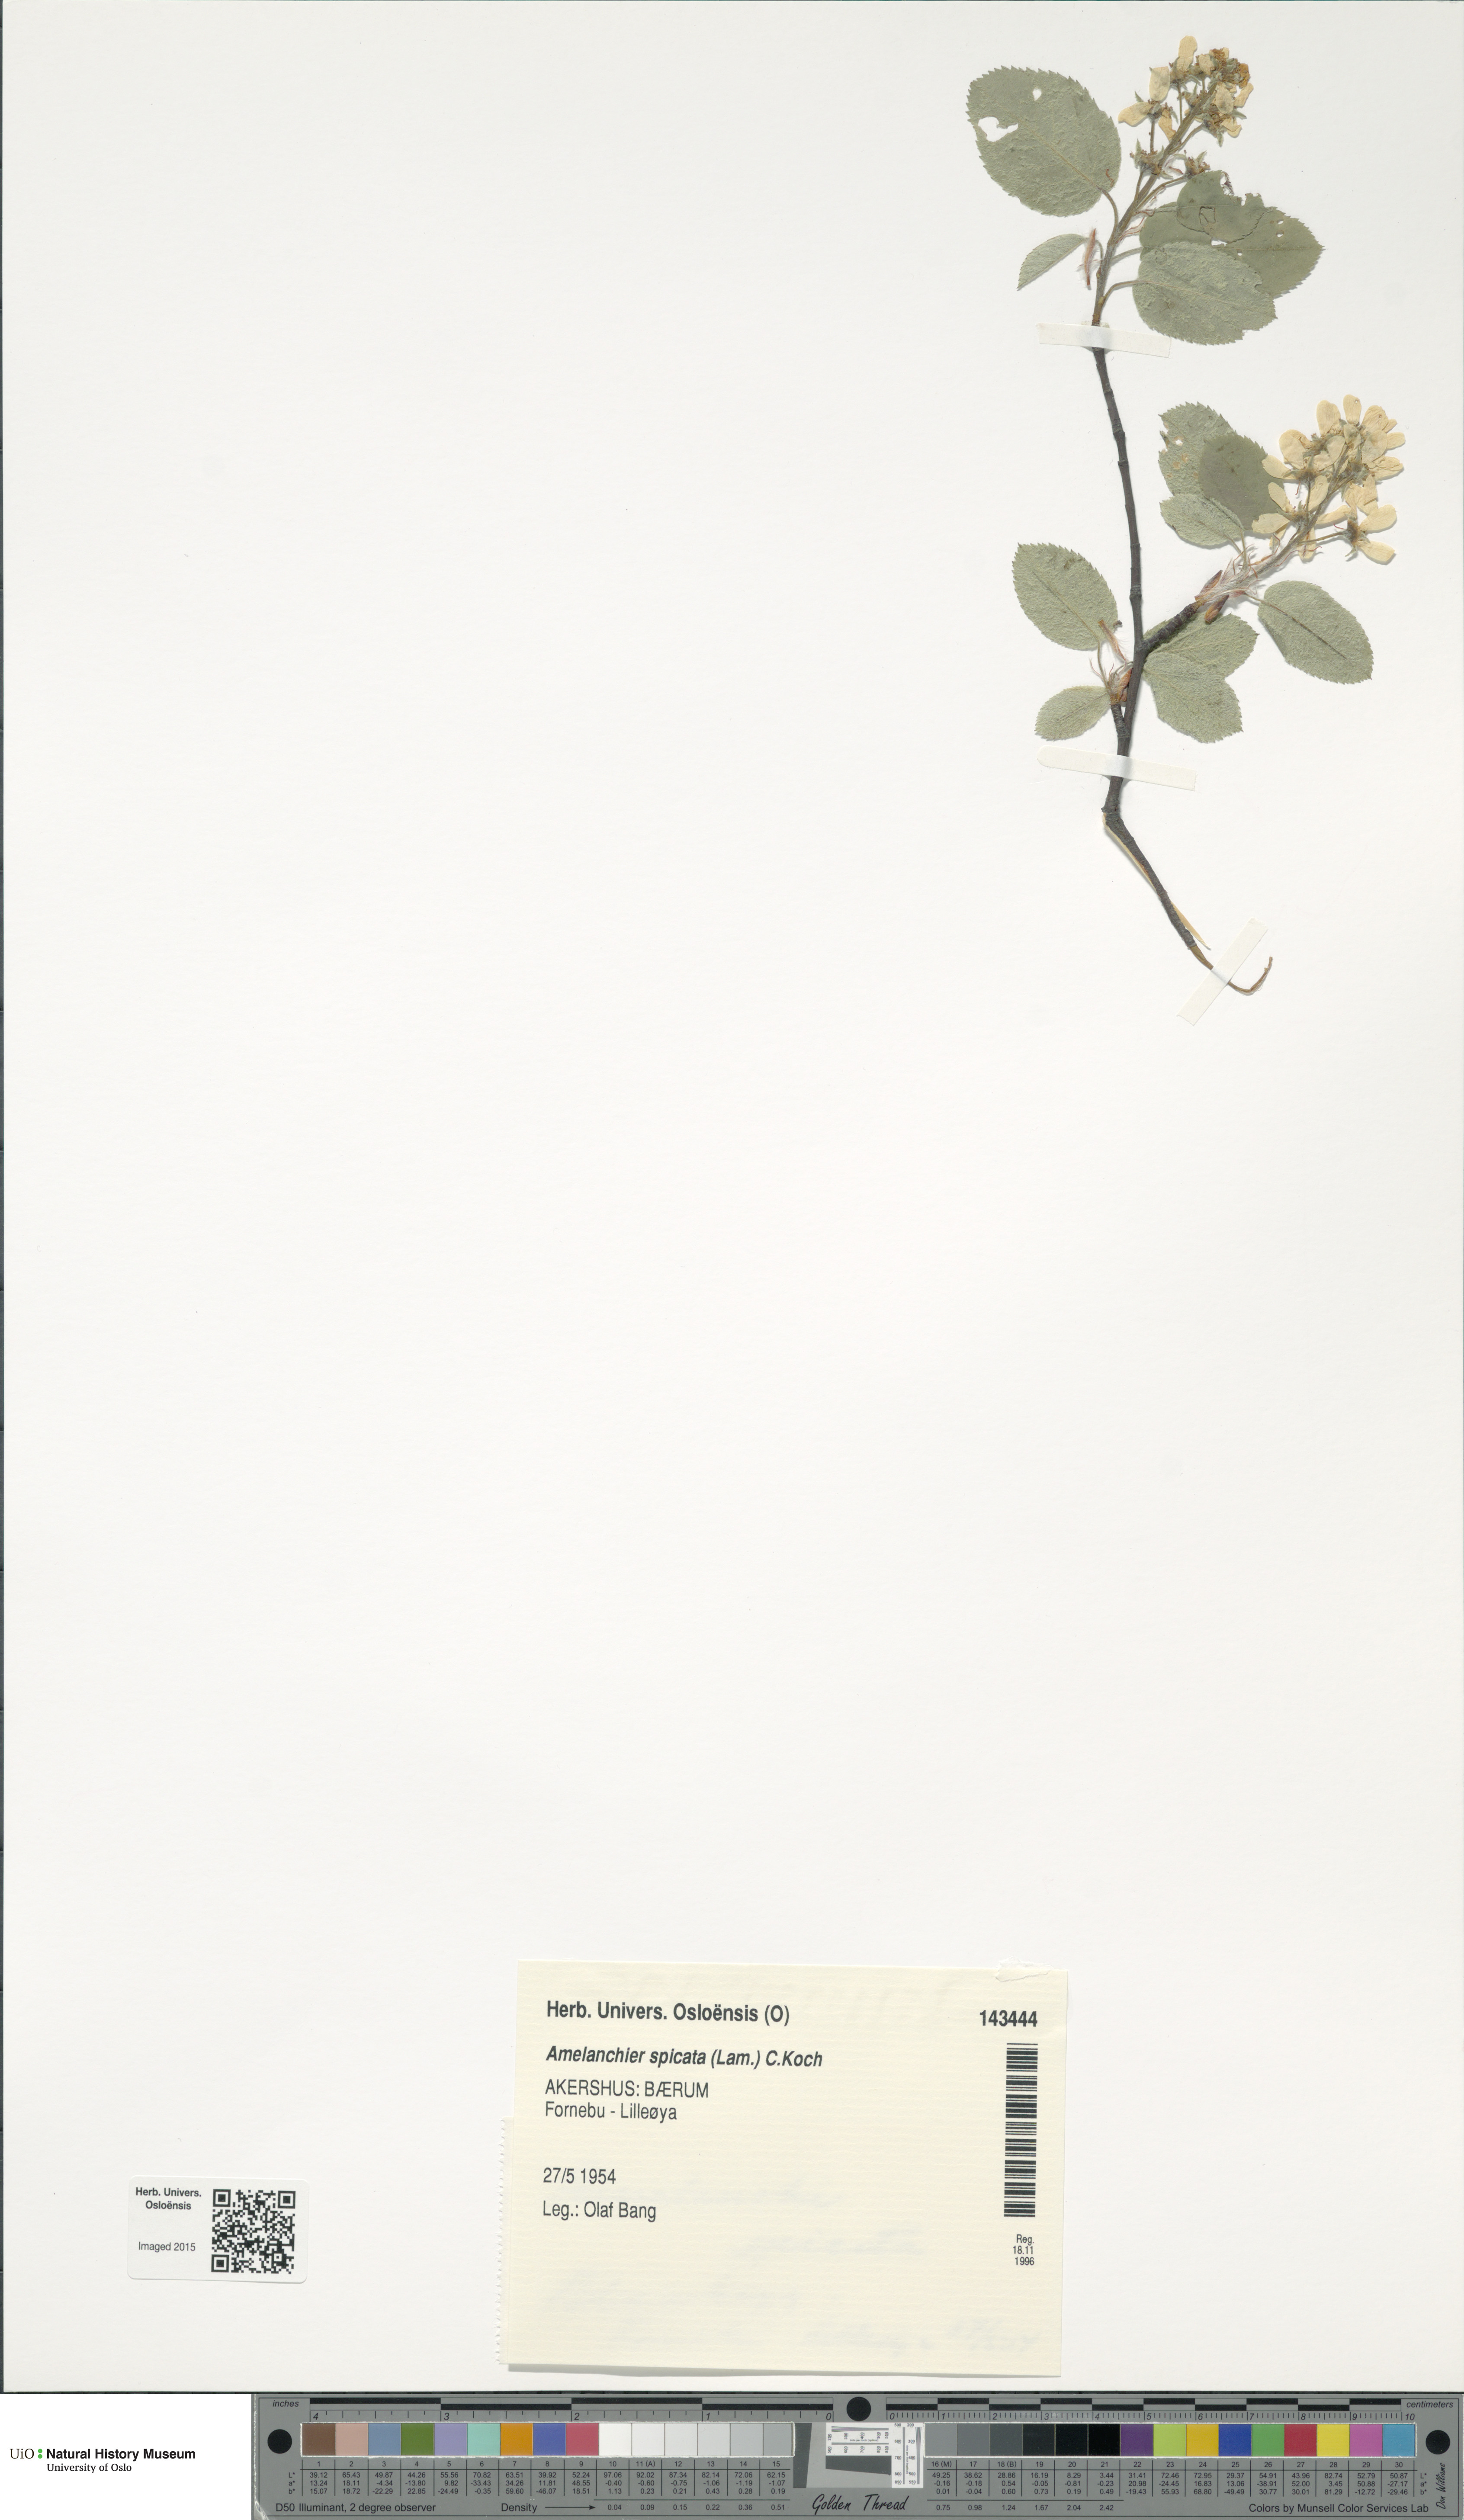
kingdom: Plantae
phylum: Tracheophyta
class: Magnoliopsida
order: Rosales
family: Rosaceae
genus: Amelanchier
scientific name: Amelanchier humilis
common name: Low juneberry
